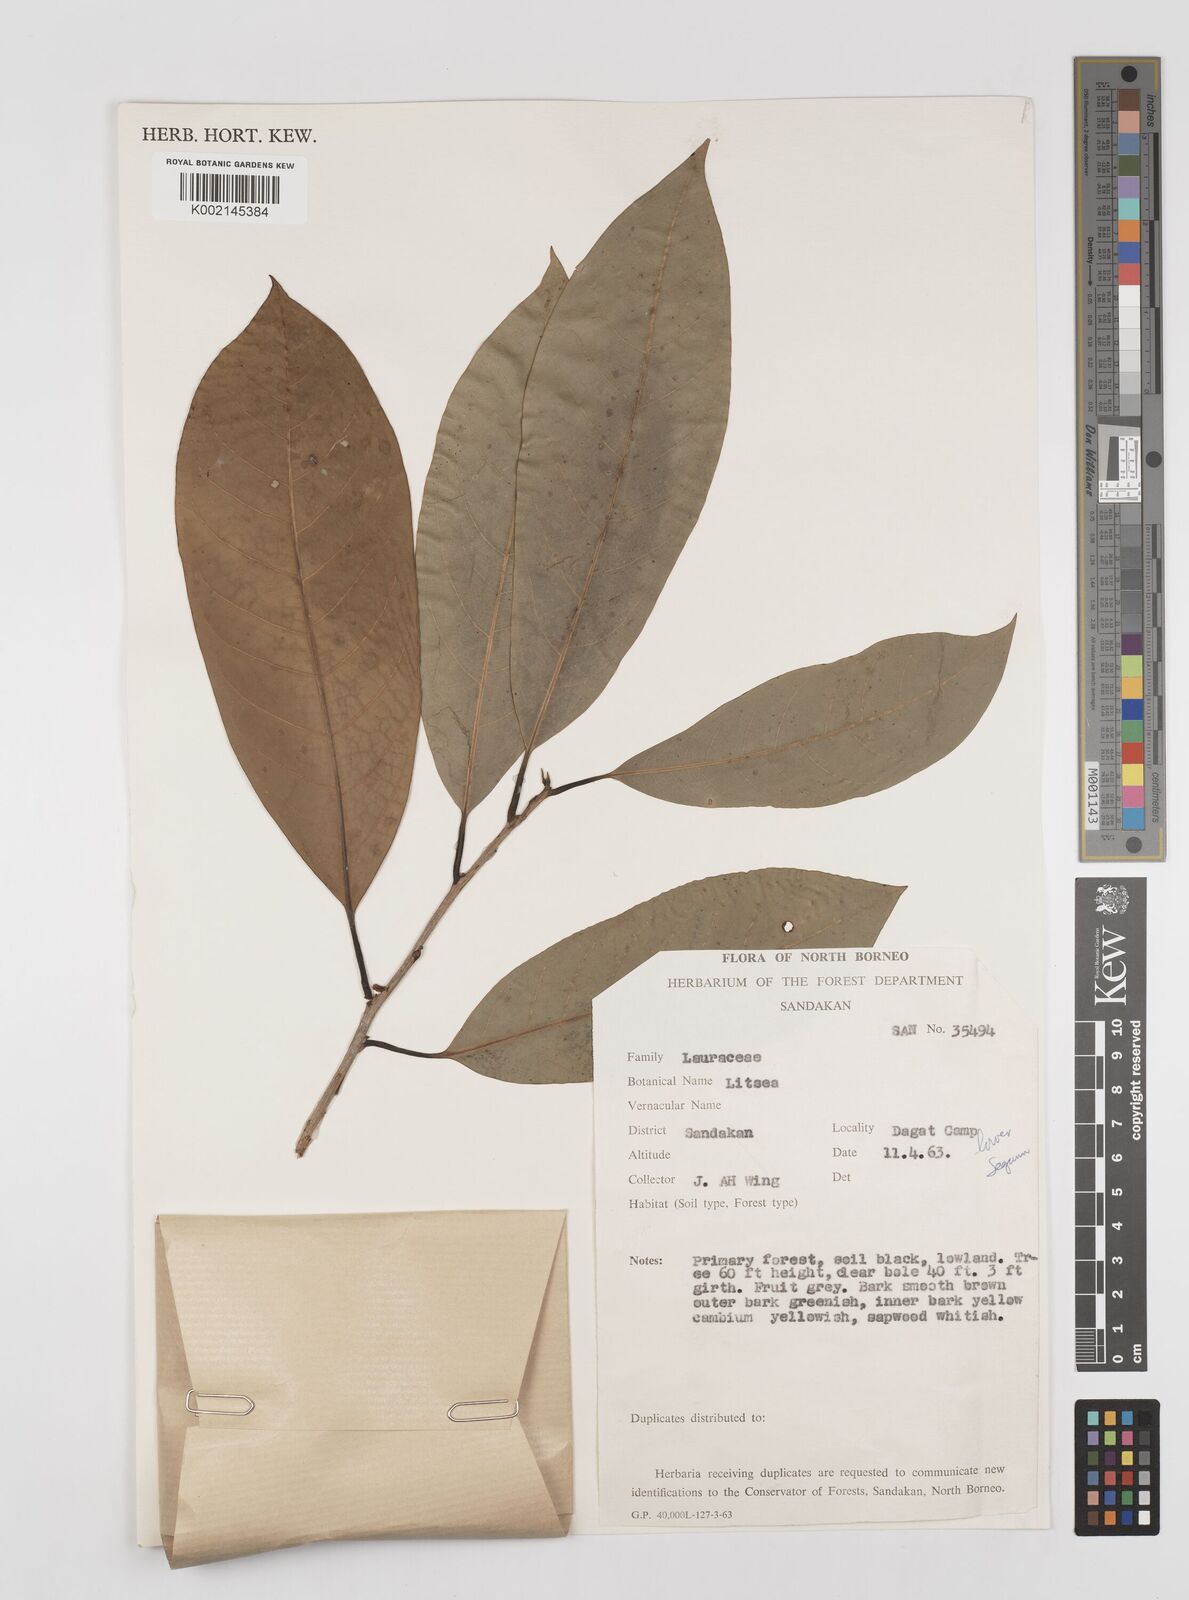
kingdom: Plantae
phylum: Tracheophyta
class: Magnoliopsida
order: Laurales
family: Lauraceae
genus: Litsea
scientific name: Litsea
